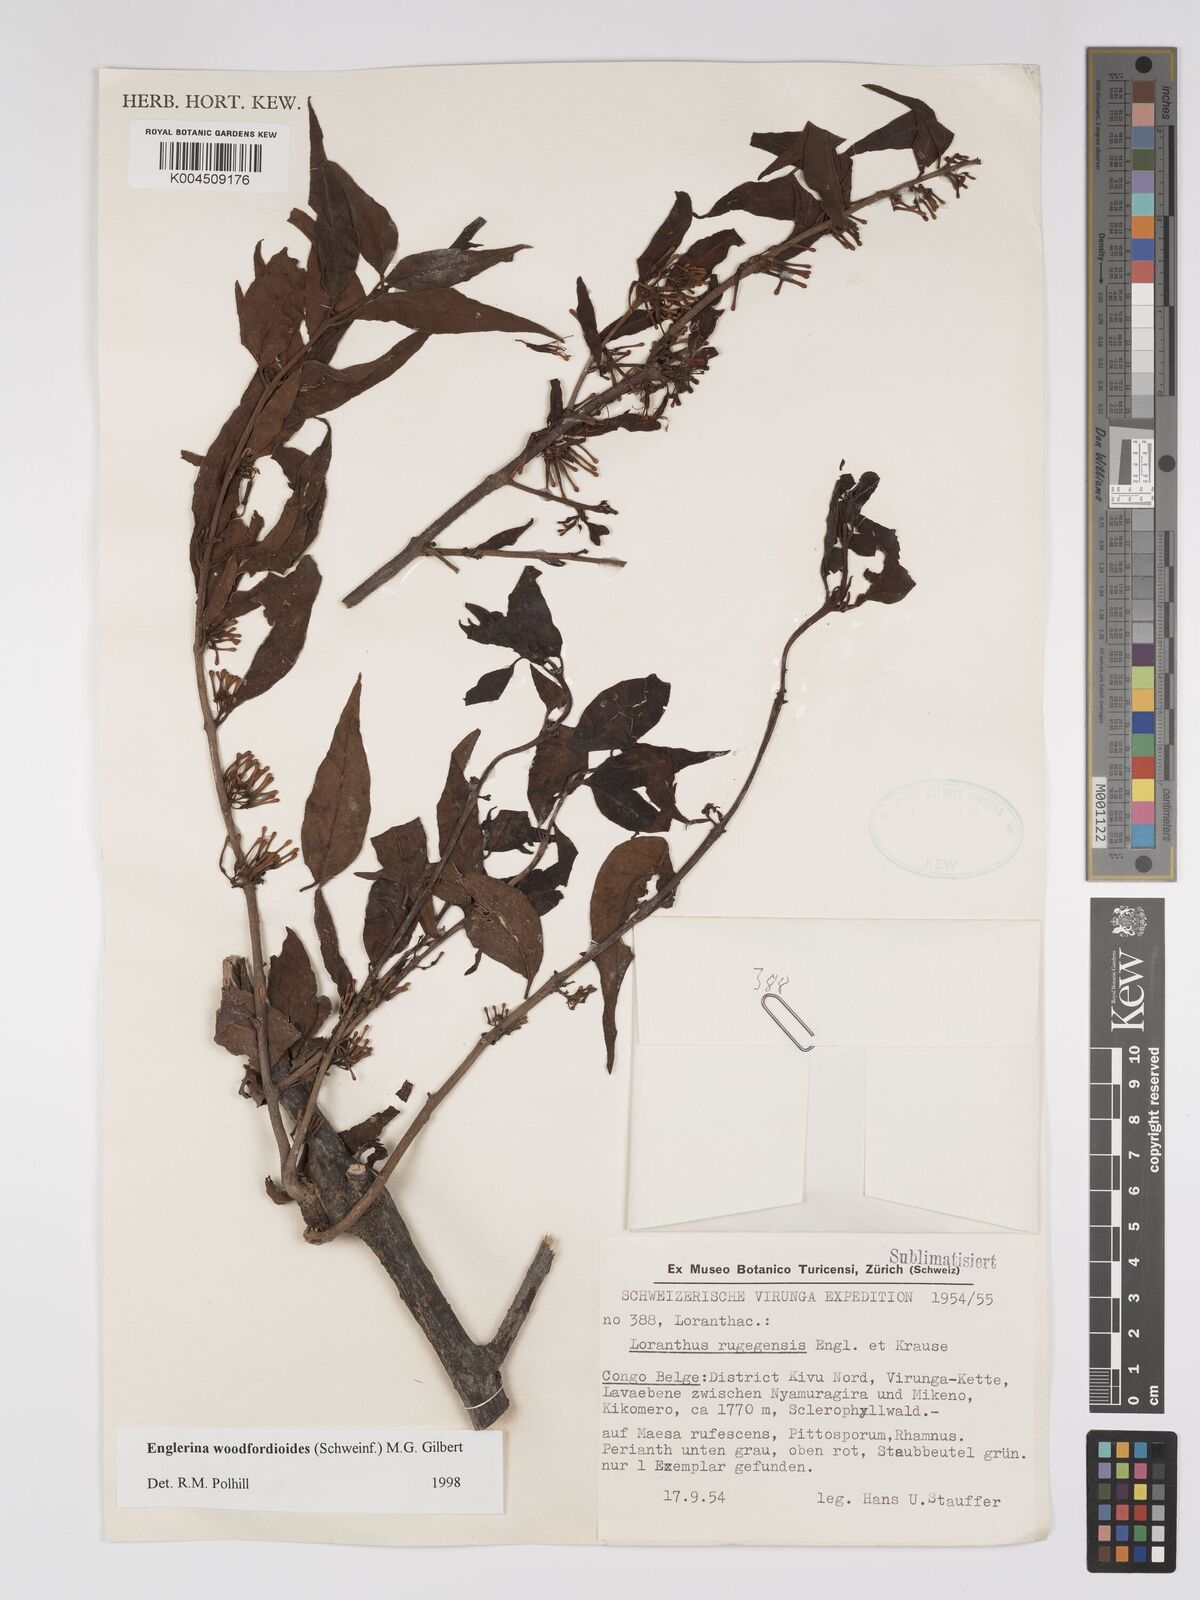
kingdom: Plantae
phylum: Tracheophyta
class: Magnoliopsida
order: Santalales
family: Loranthaceae
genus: Englerina
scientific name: Englerina woodfordioides
